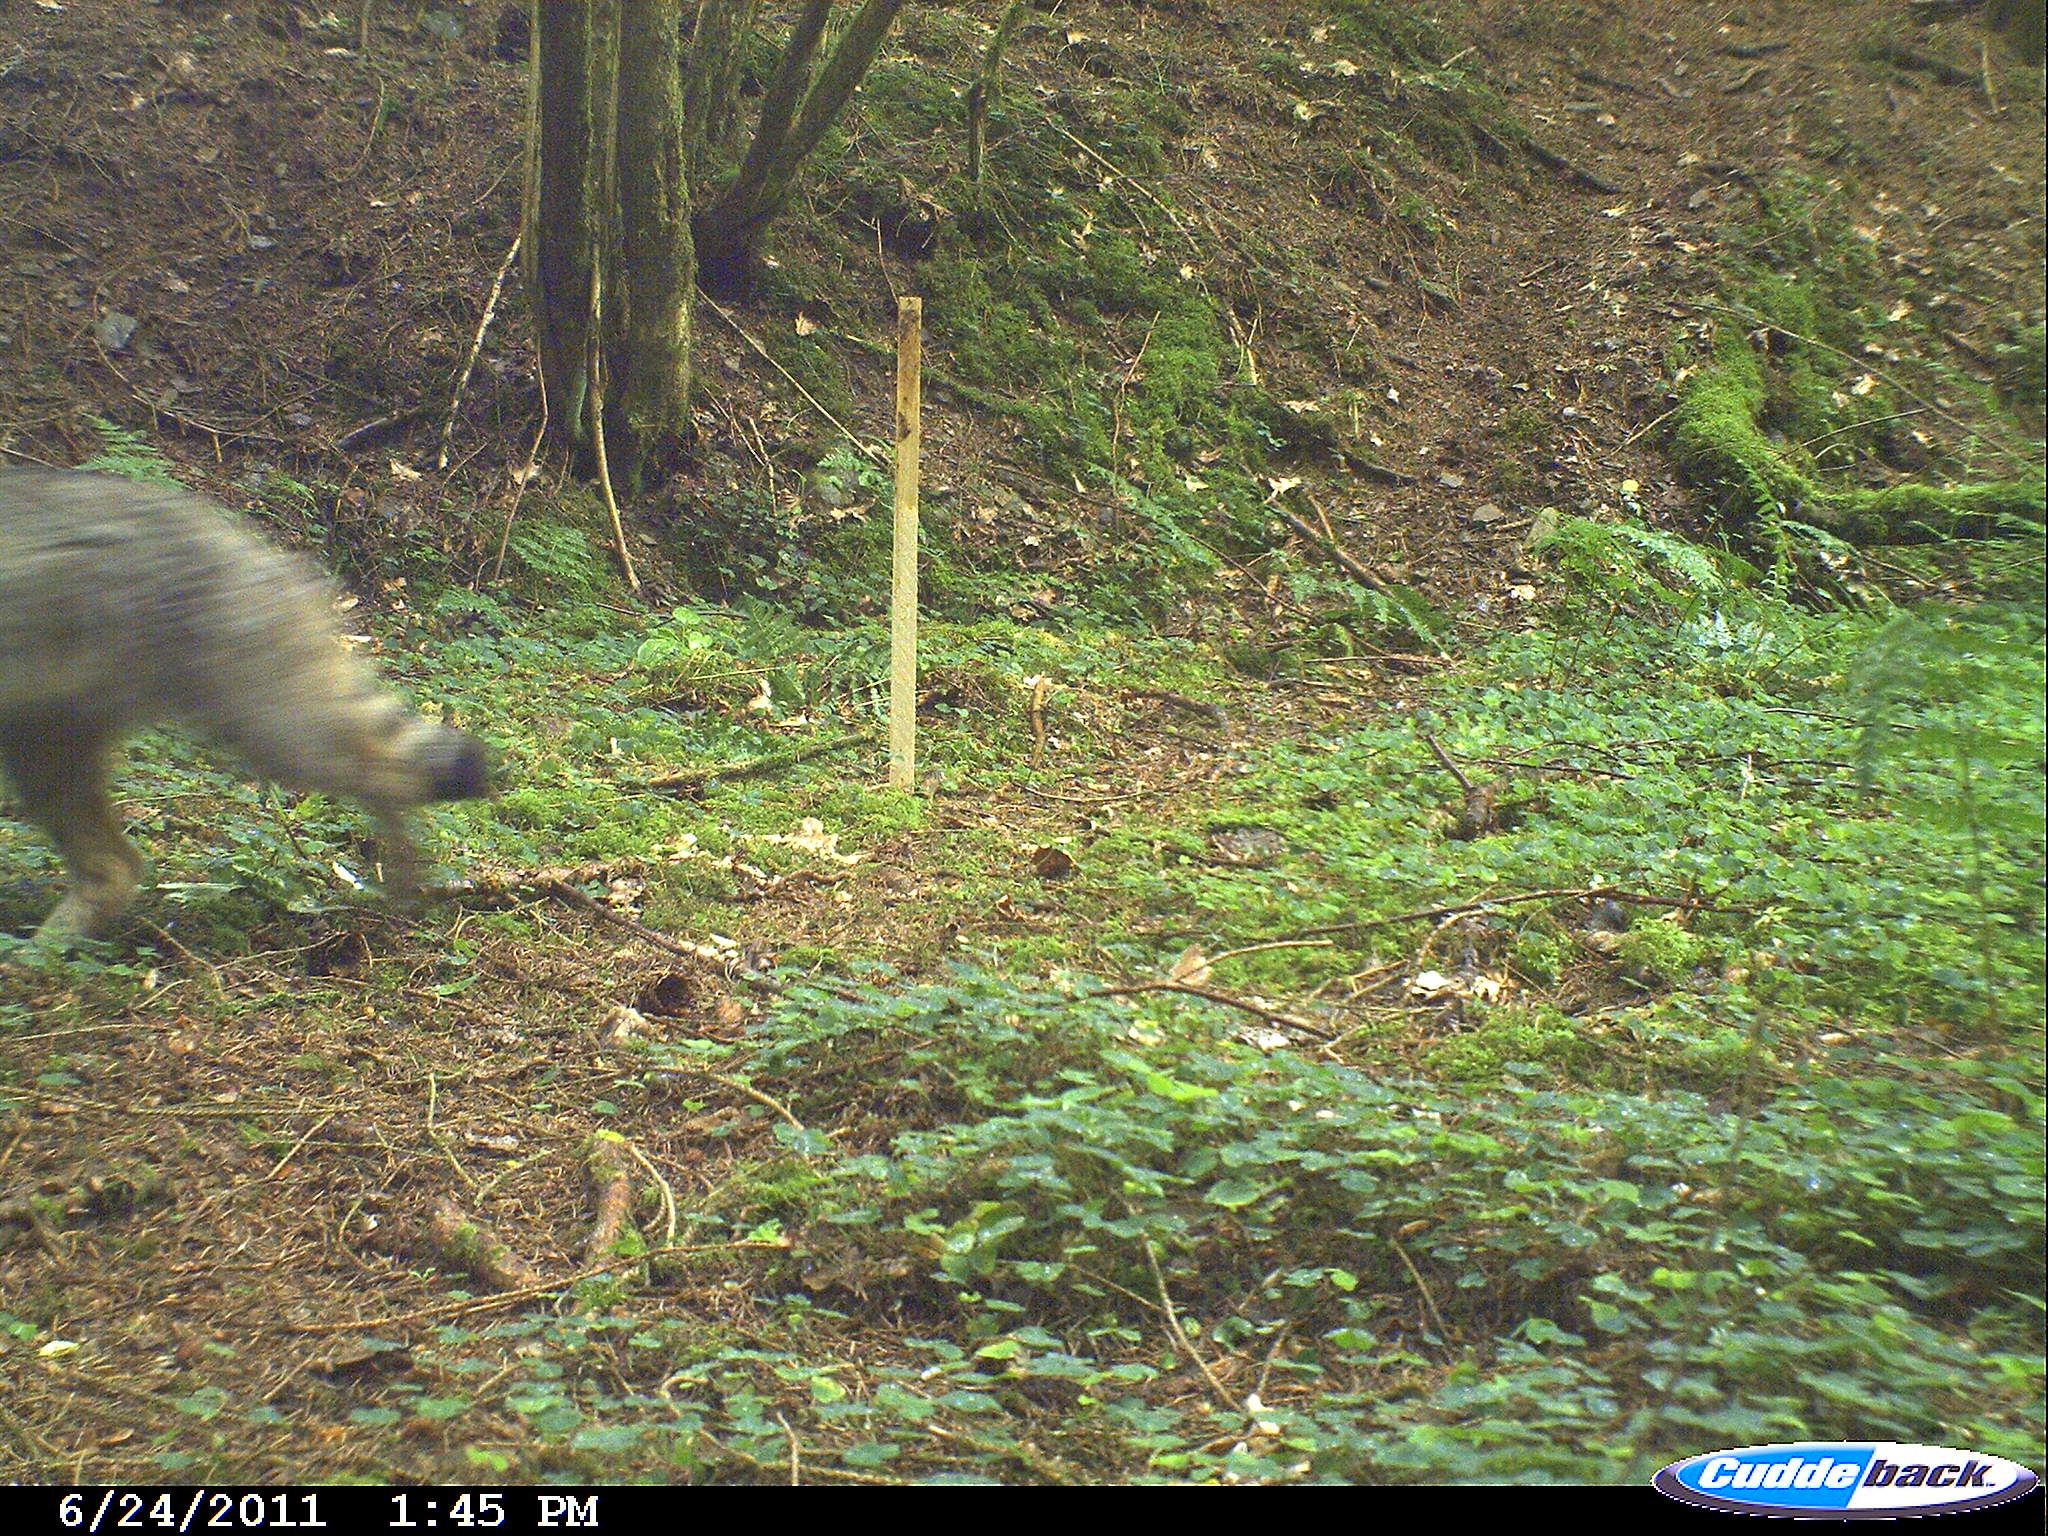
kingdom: Animalia
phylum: Chordata
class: Mammalia
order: Carnivora
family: Felidae
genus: Felis
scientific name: Felis silvestris
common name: Wildcat
